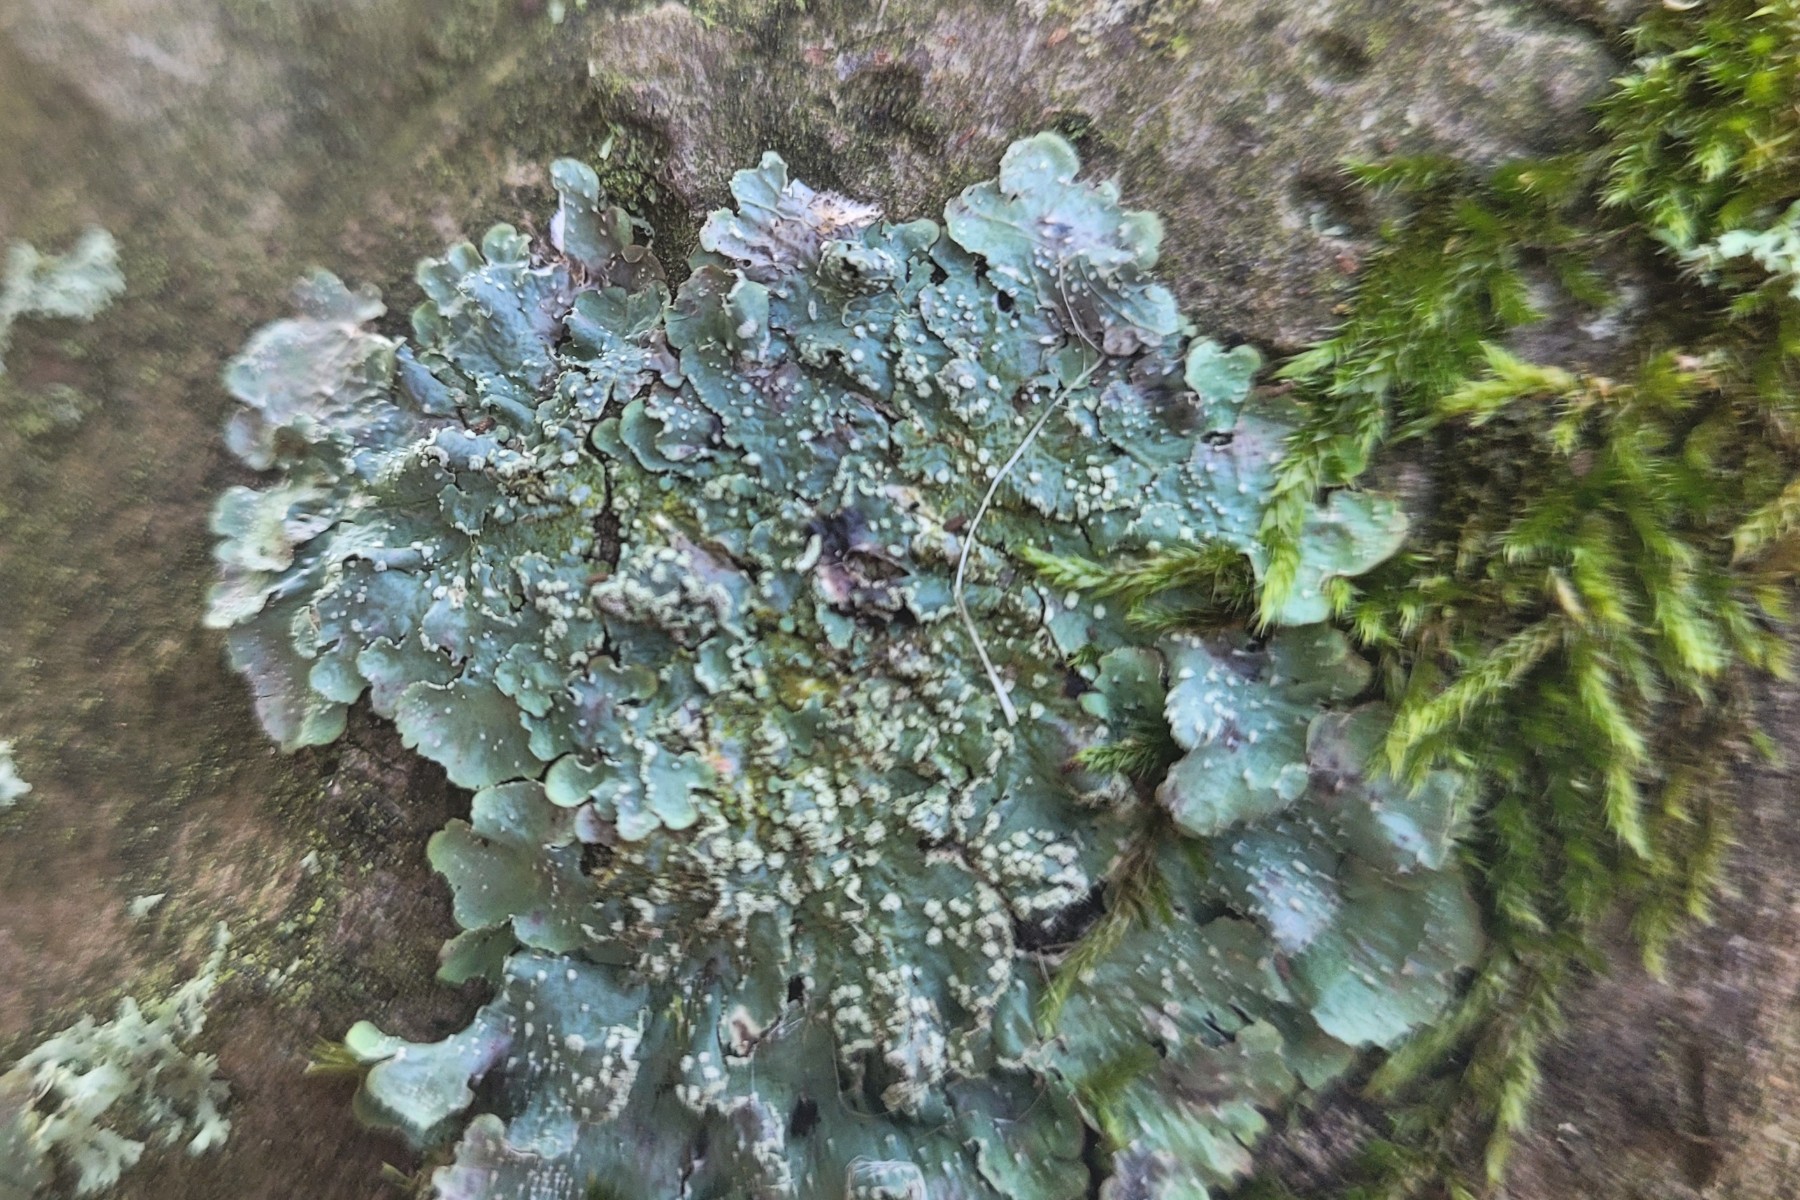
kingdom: Fungi
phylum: Ascomycota
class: Lecanoromycetes
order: Lecanorales
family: Parmeliaceae
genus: Punctelia
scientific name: Punctelia subrudecta
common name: punkt-skållav
